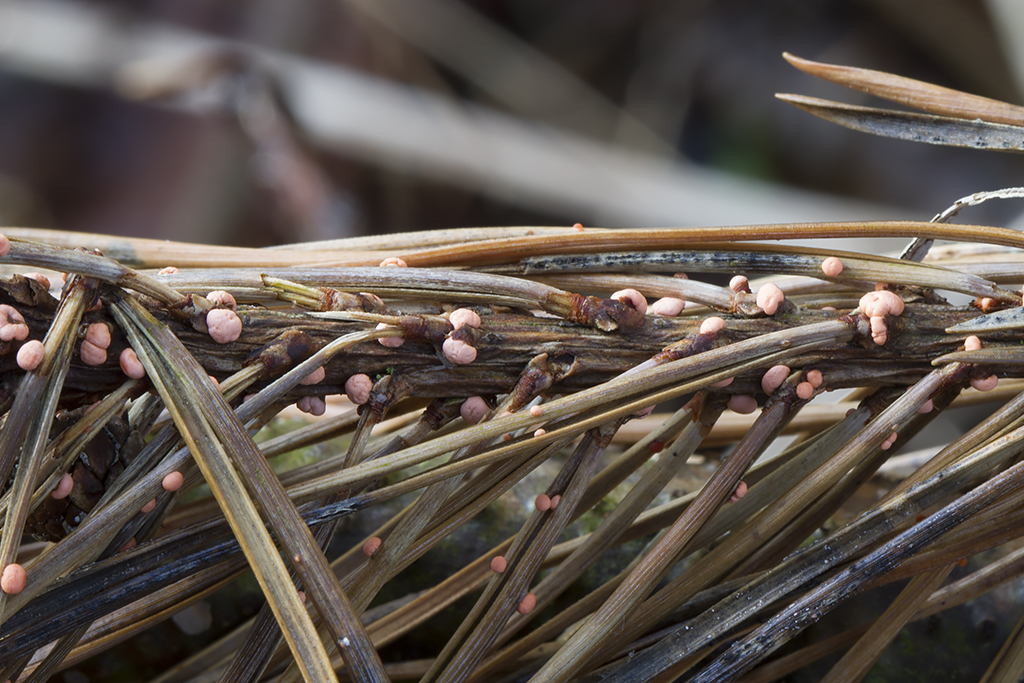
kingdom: Fungi
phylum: Ascomycota
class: Sordariomycetes
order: Hypocreales
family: Nectriaceae
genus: Nectria
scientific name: Nectria
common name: cinnobersvamp
